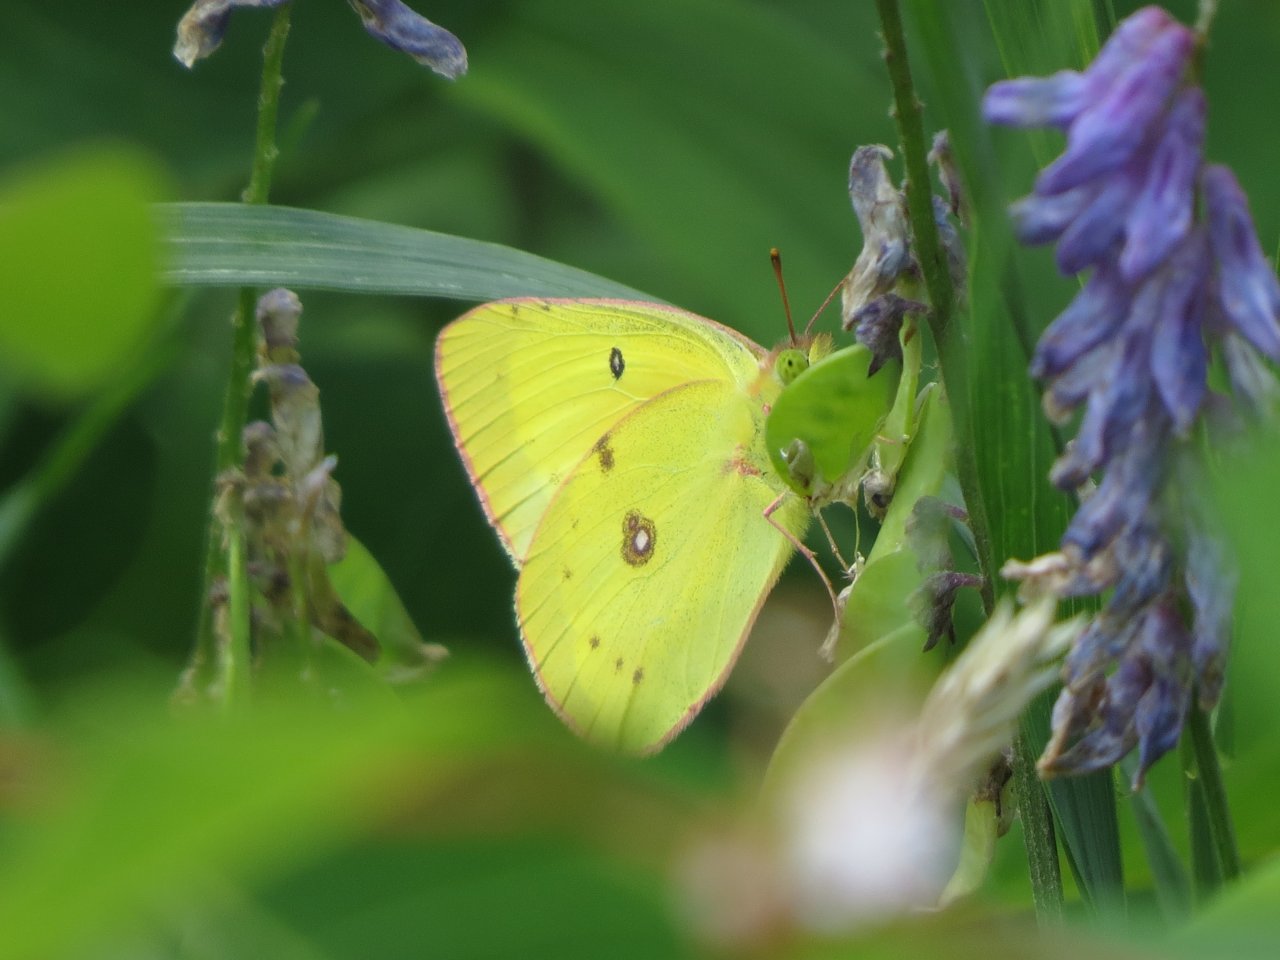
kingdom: Animalia
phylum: Arthropoda
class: Insecta
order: Lepidoptera
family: Pieridae
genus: Colias
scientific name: Colias philodice
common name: Clouded Sulphur
